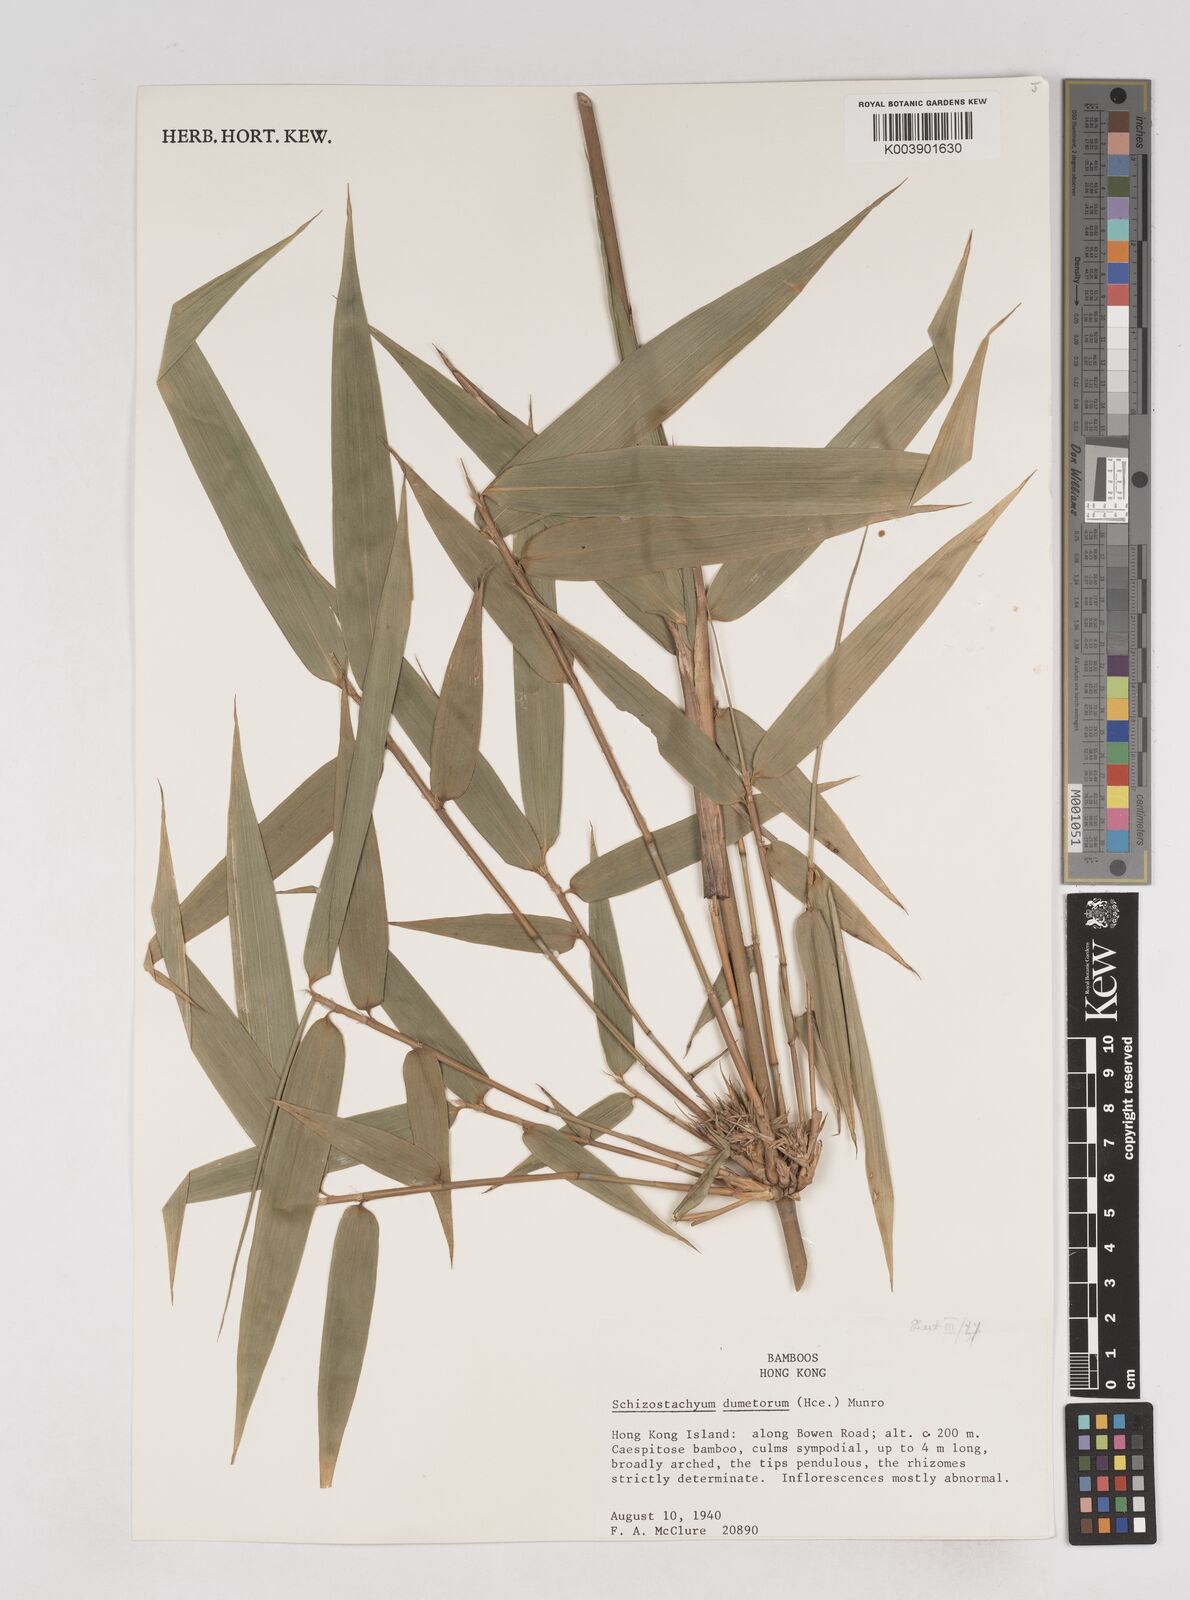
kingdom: Plantae
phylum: Tracheophyta
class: Liliopsida
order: Poales
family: Poaceae
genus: Schizostachyum
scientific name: Schizostachyum dumetorum
